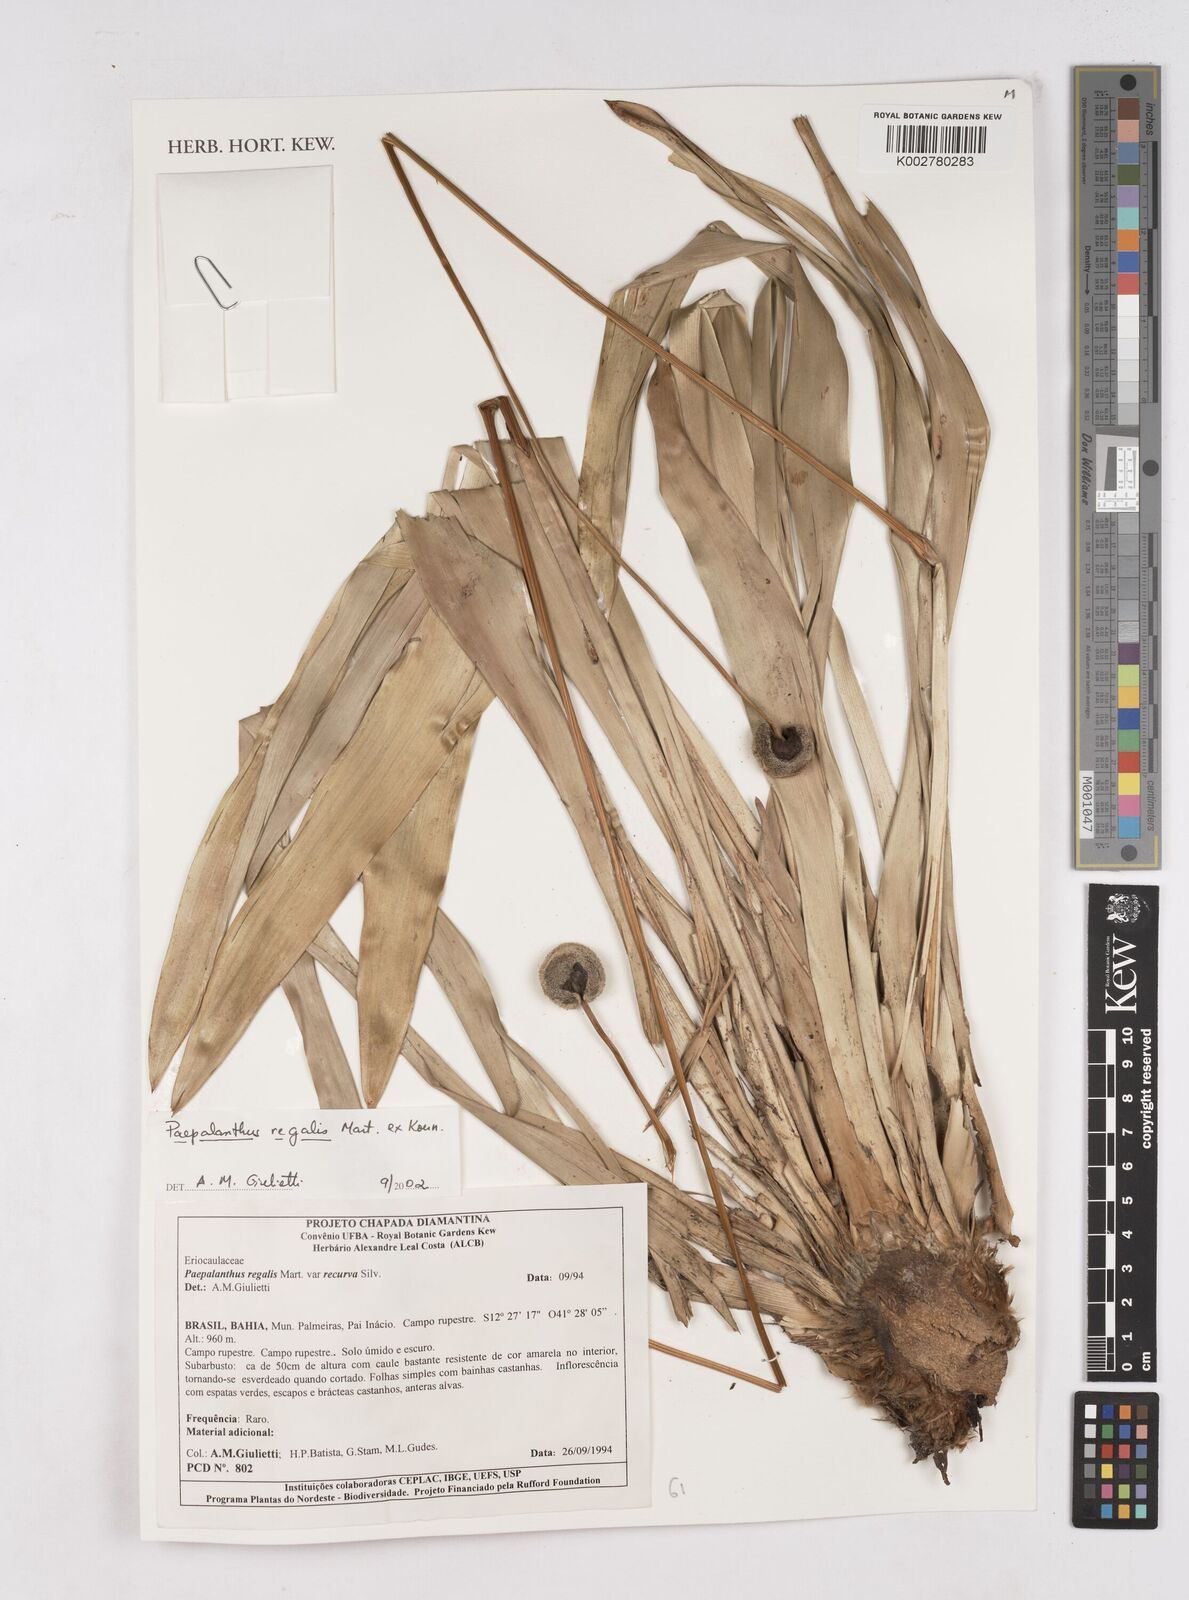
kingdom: Plantae
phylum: Tracheophyta
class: Liliopsida
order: Poales
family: Eriocaulaceae
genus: Paepalanthus
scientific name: Paepalanthus regalis
